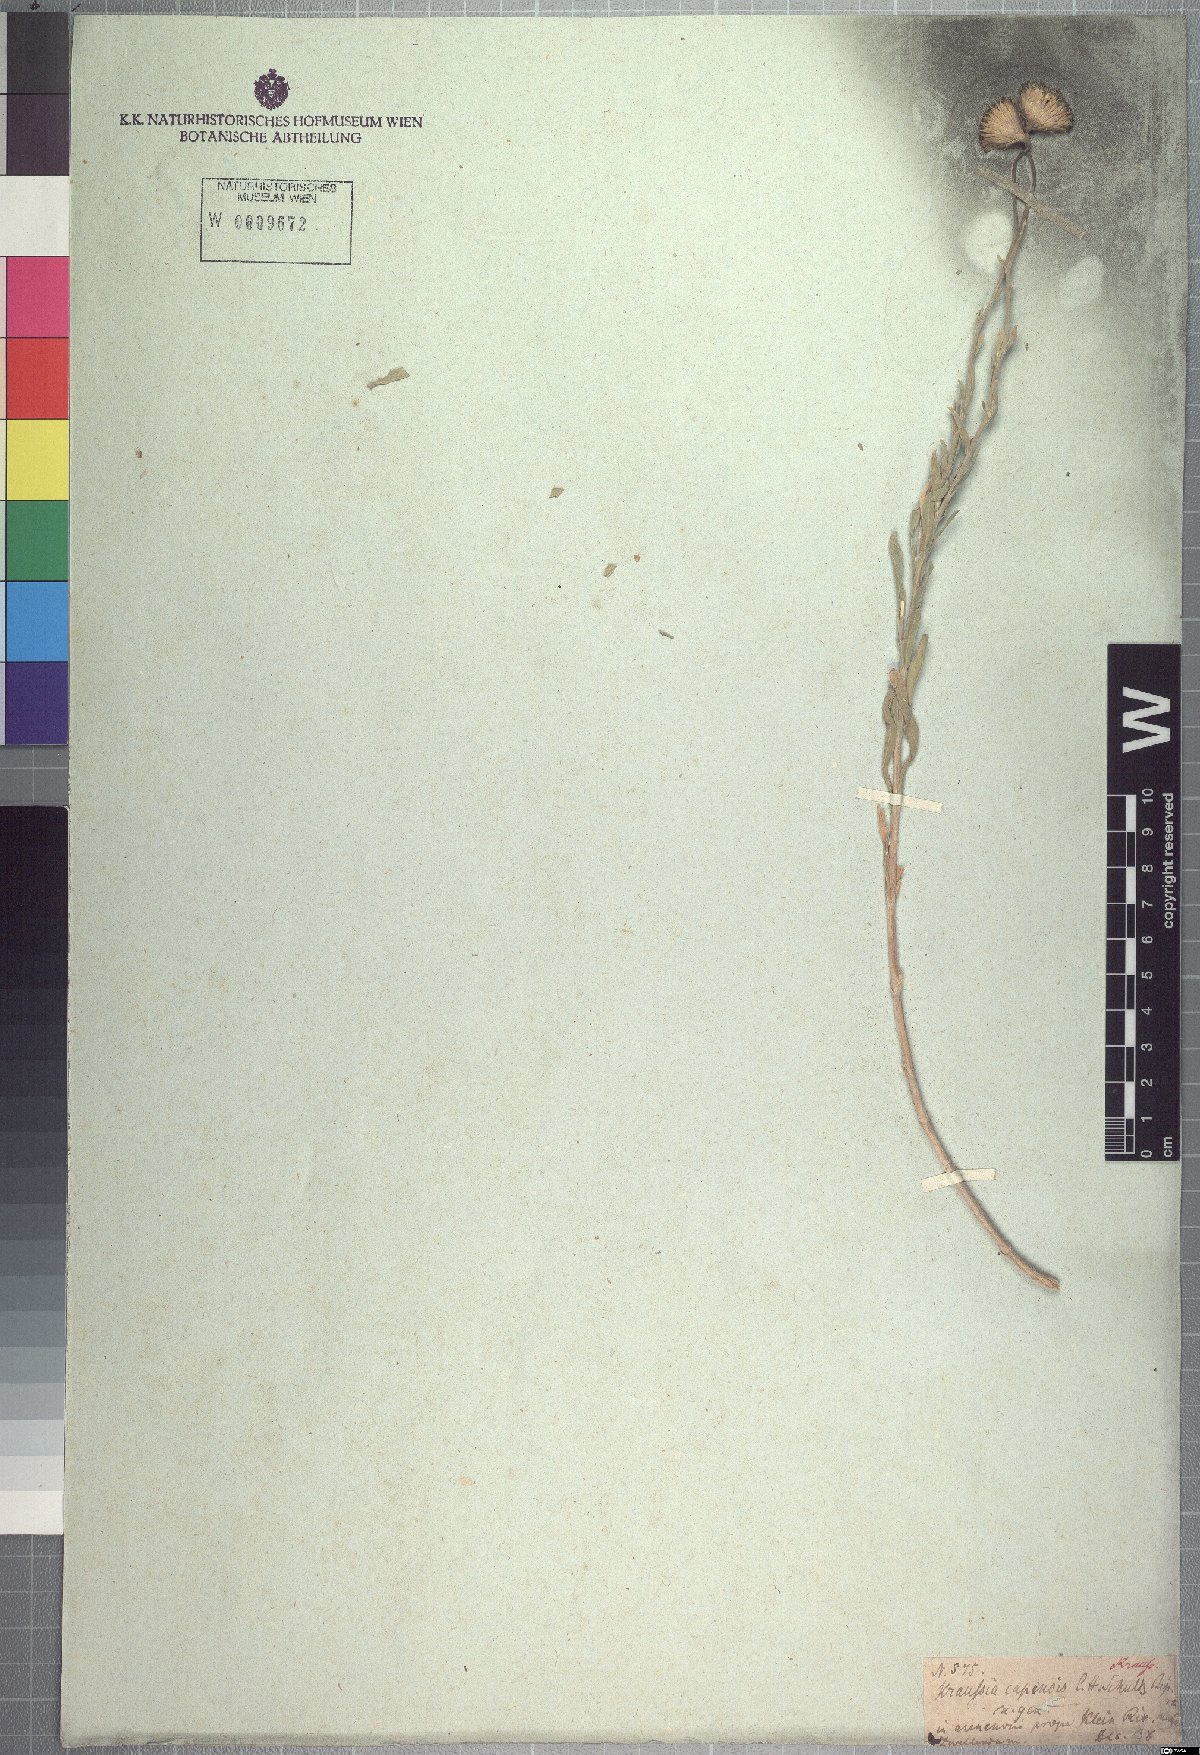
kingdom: Plantae
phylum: Tracheophyta
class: Magnoliopsida
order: Asterales
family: Asteraceae
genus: Amellus
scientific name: Amellus capensis
